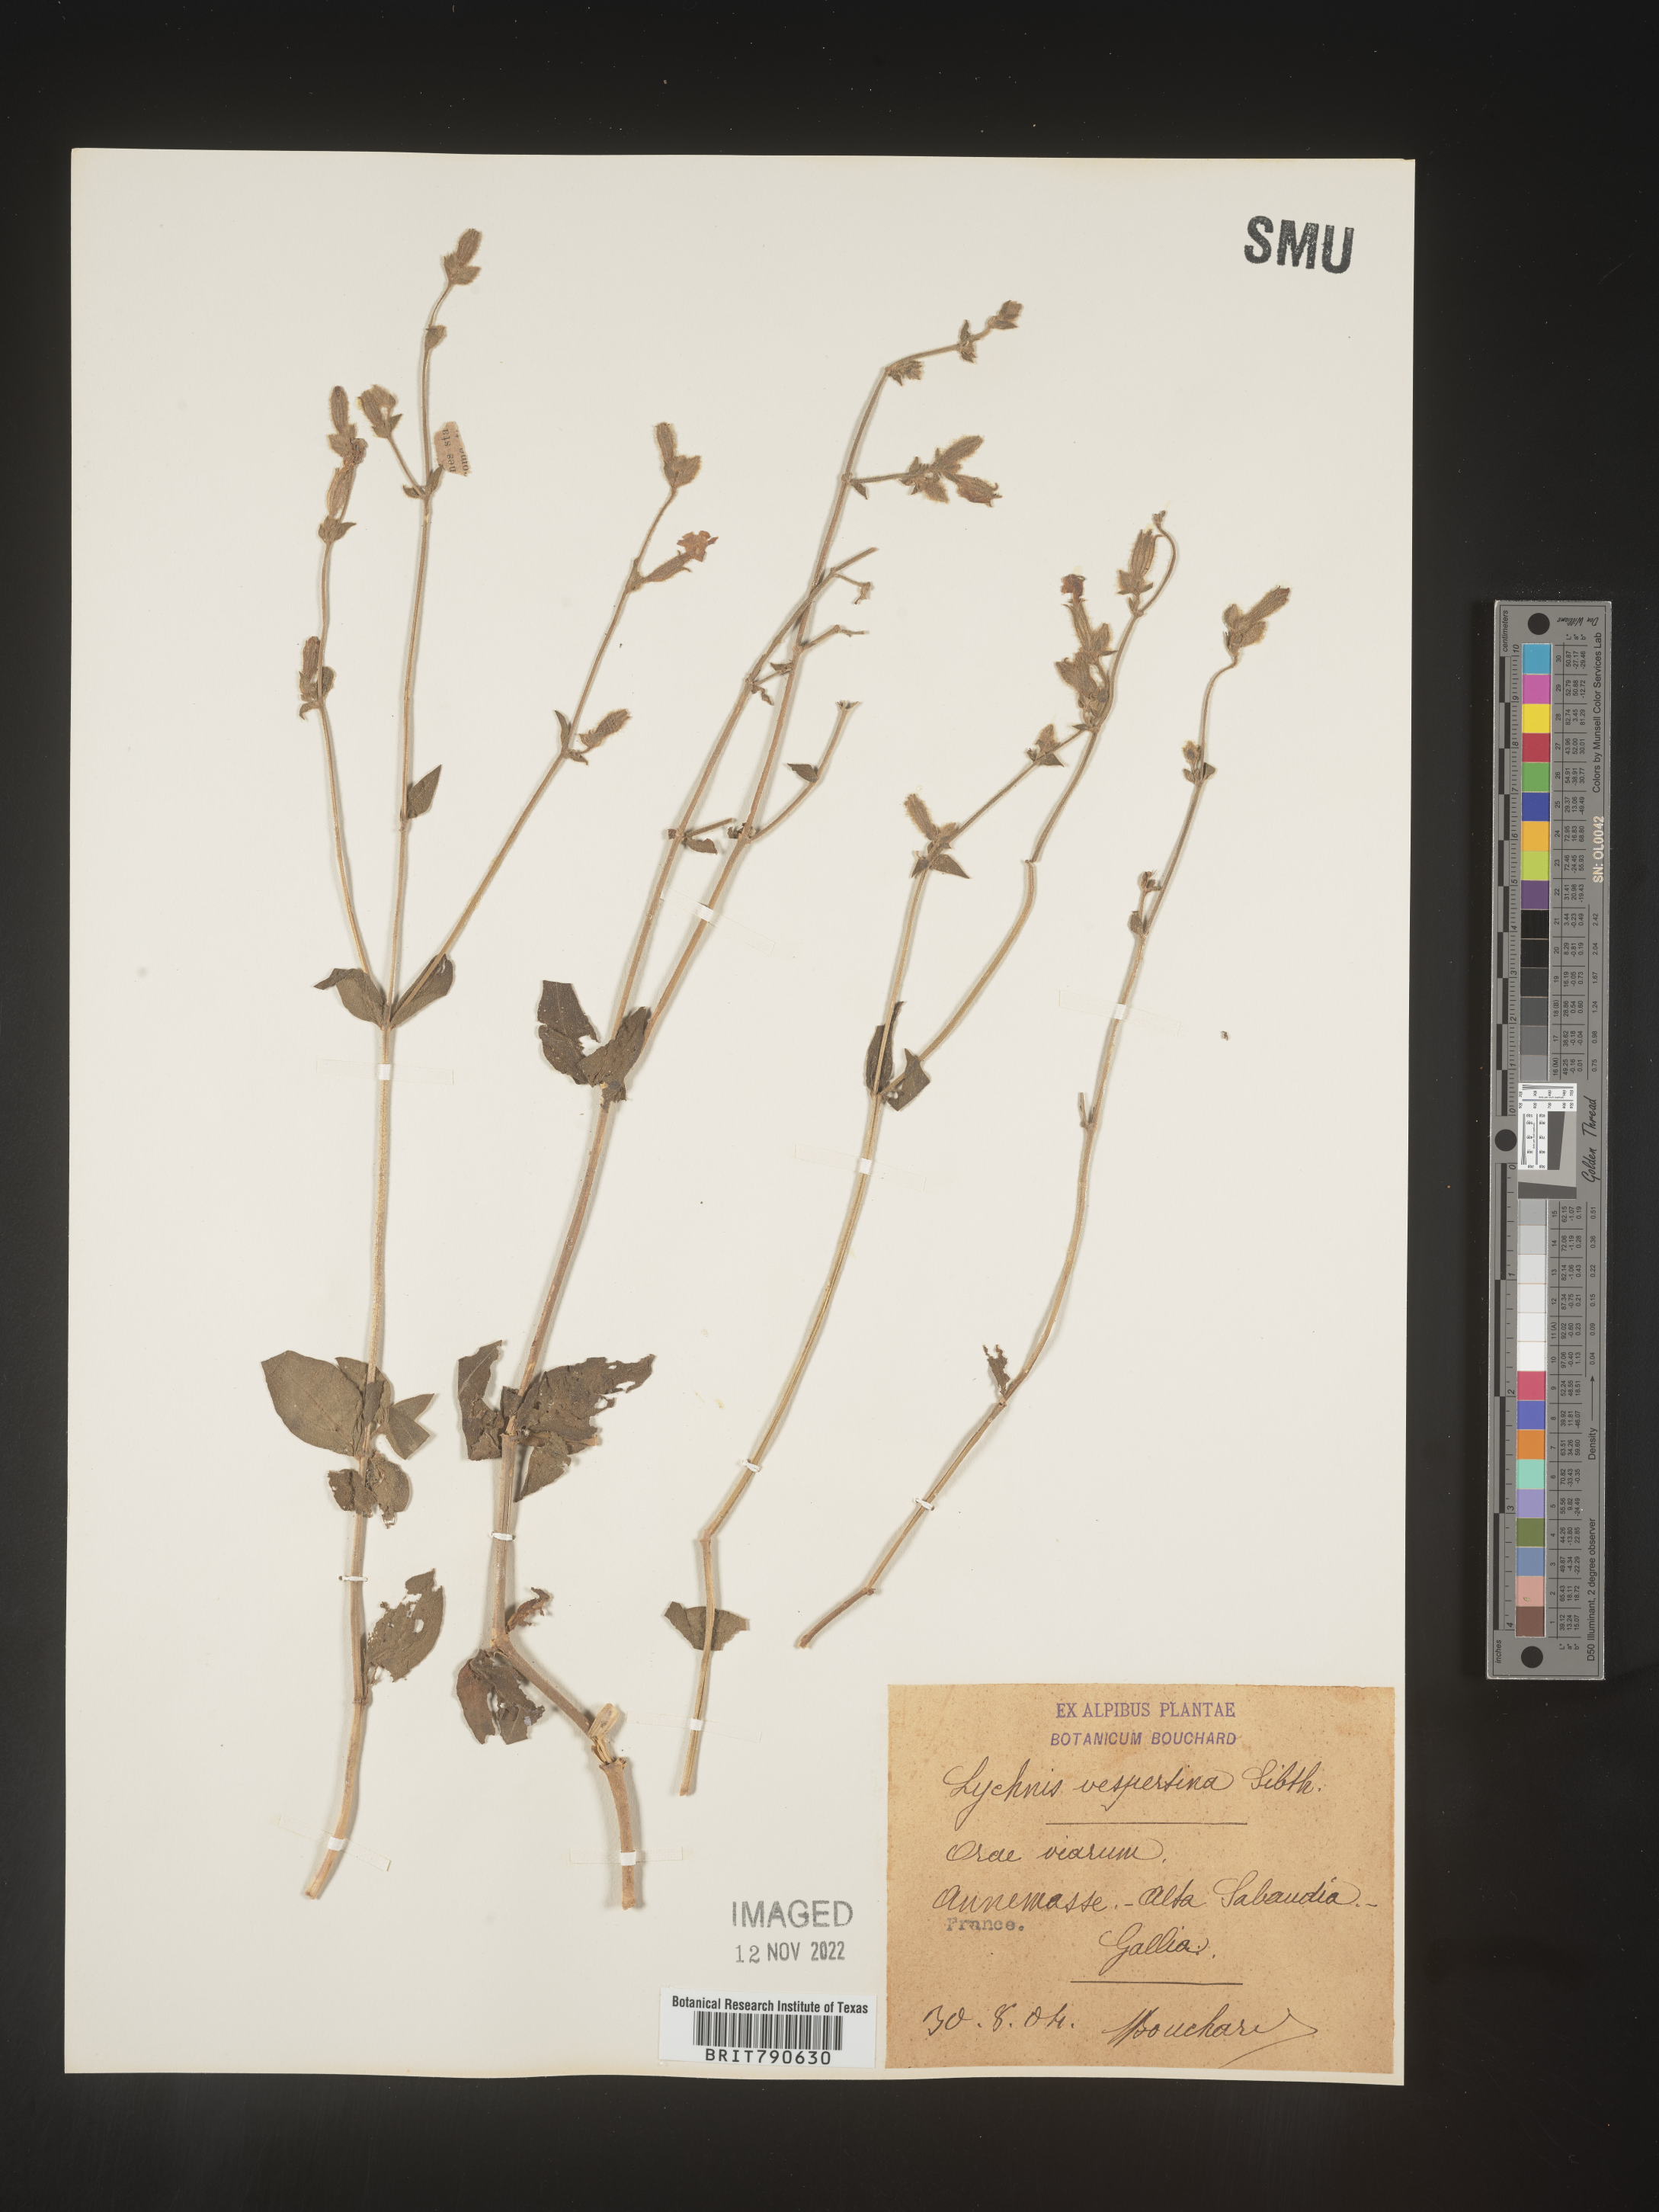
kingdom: Plantae
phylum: Tracheophyta
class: Magnoliopsida
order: Caryophyllales
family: Caryophyllaceae
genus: Silene
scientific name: Silene
